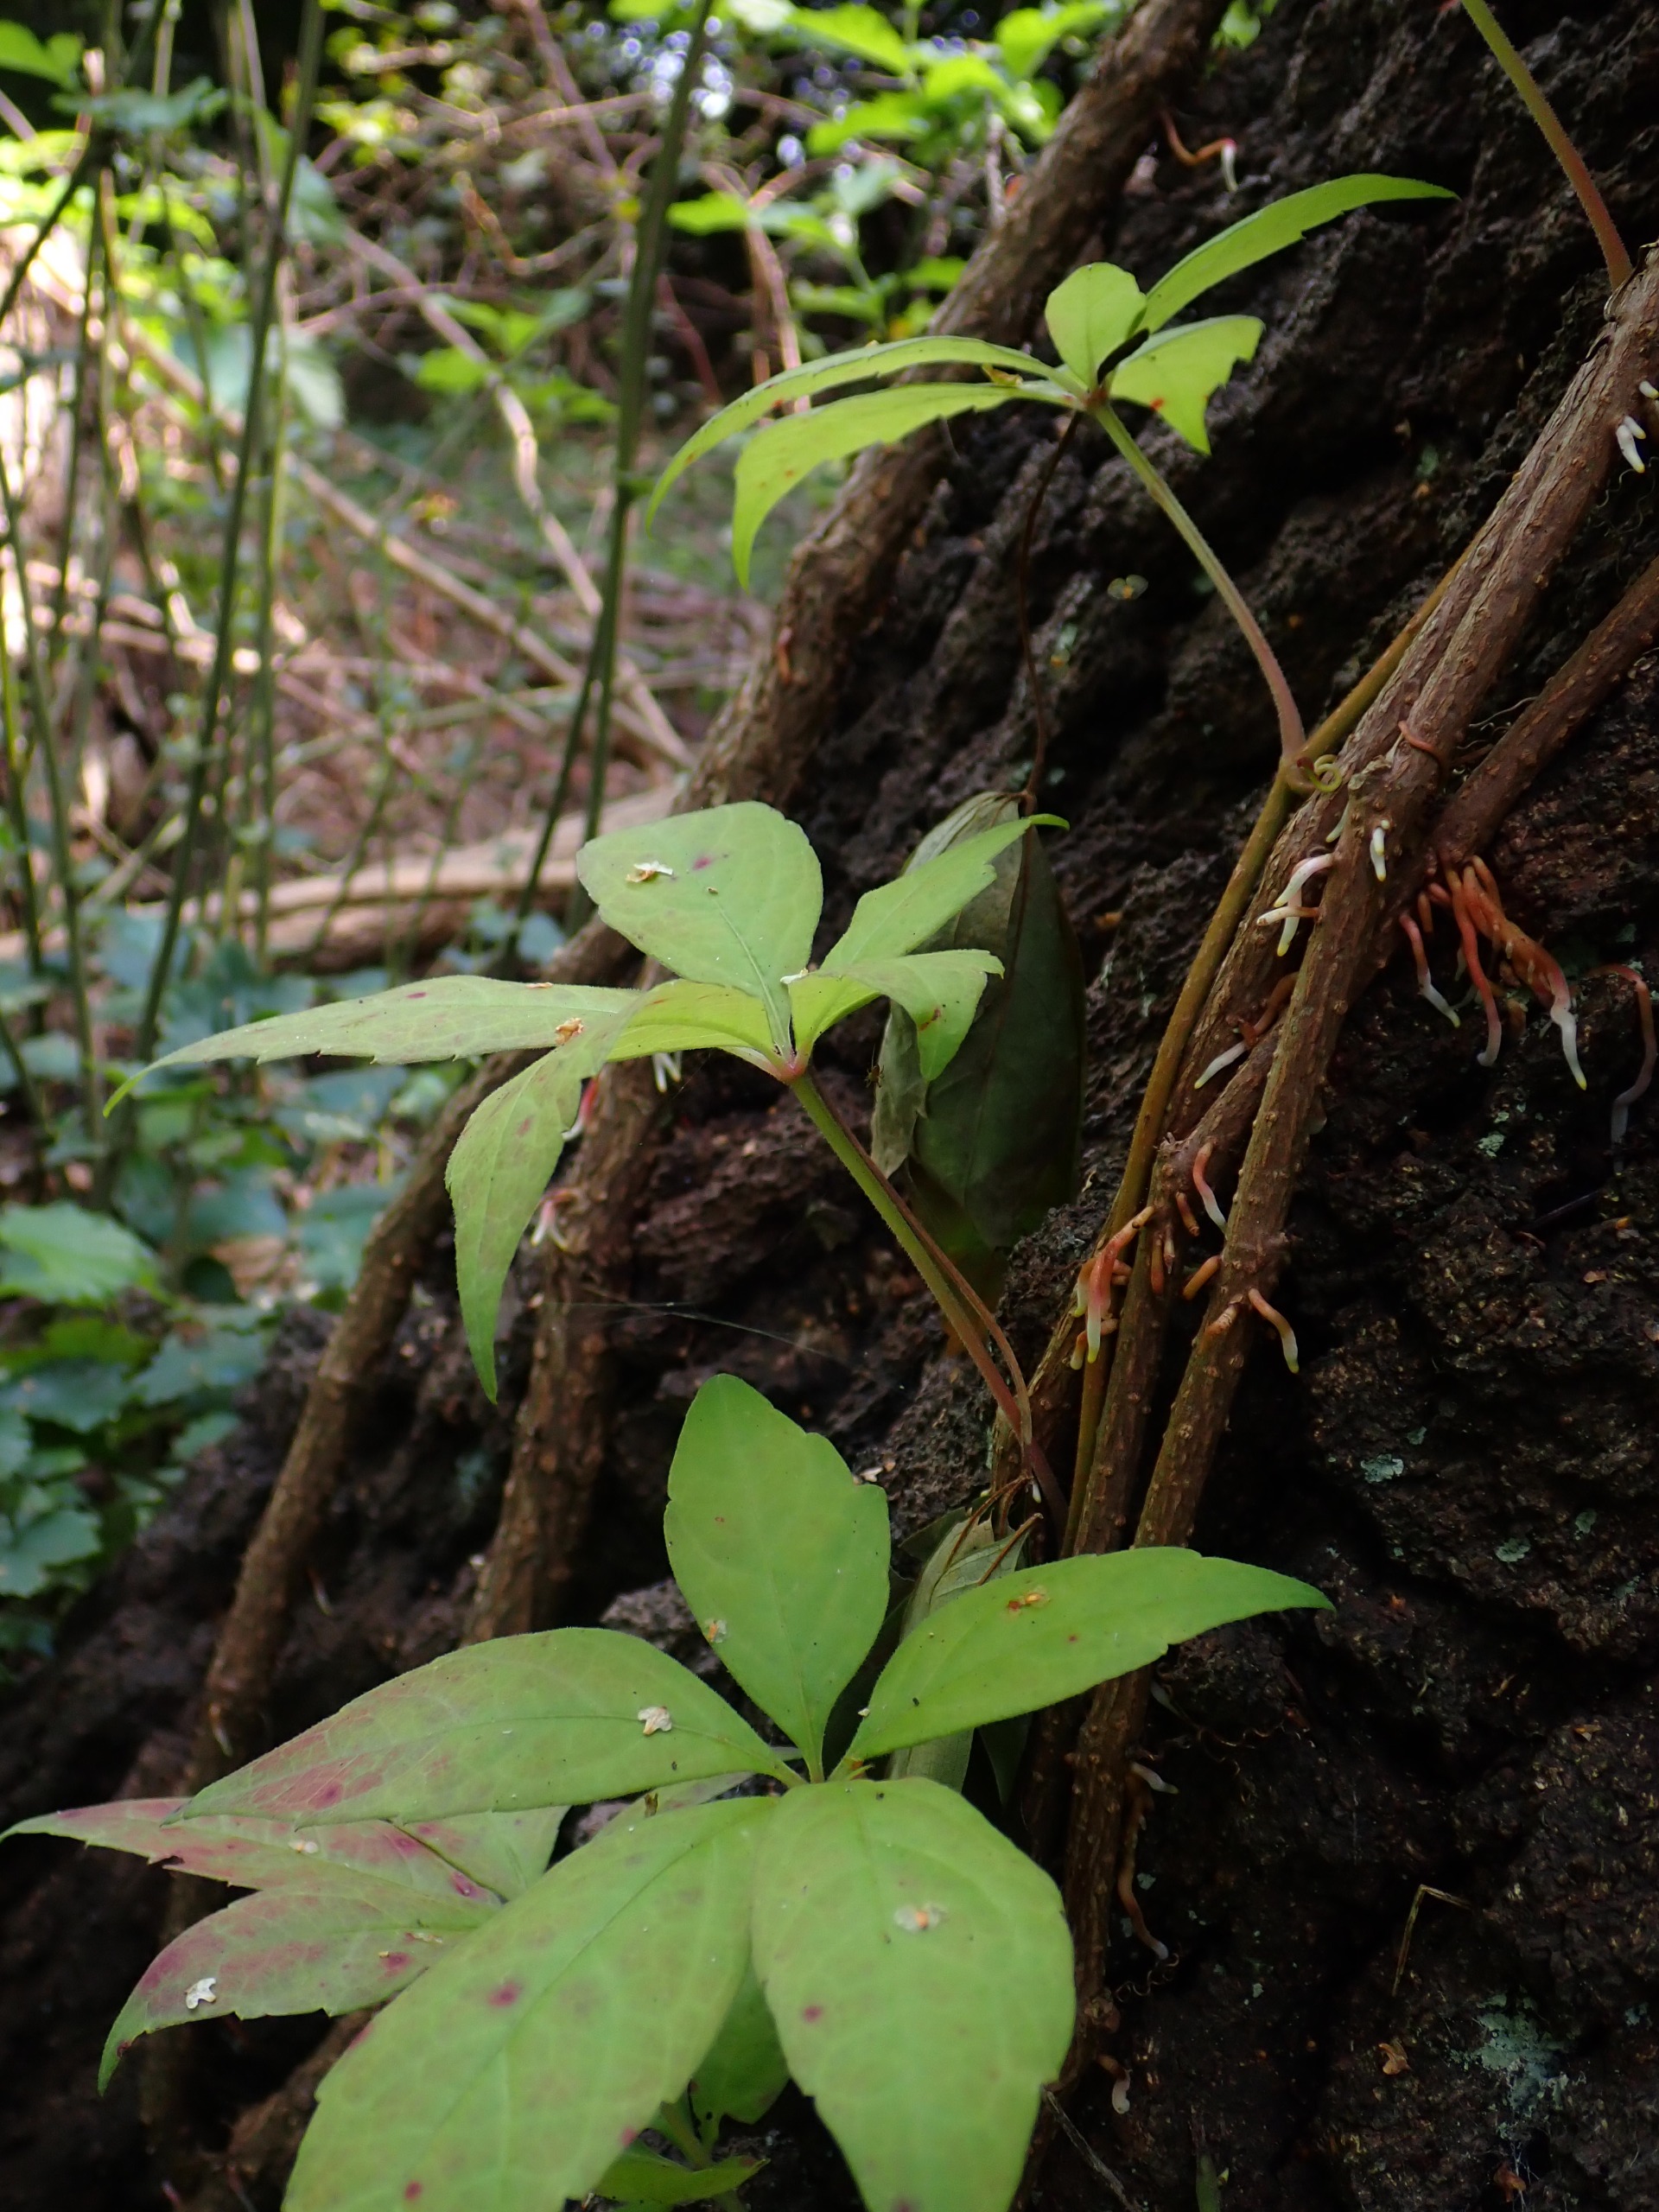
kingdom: Plantae
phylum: Tracheophyta
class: Magnoliopsida
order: Vitales
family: Vitaceae
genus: Parthenocissus
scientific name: Parthenocissus
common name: Vildvinslægten
